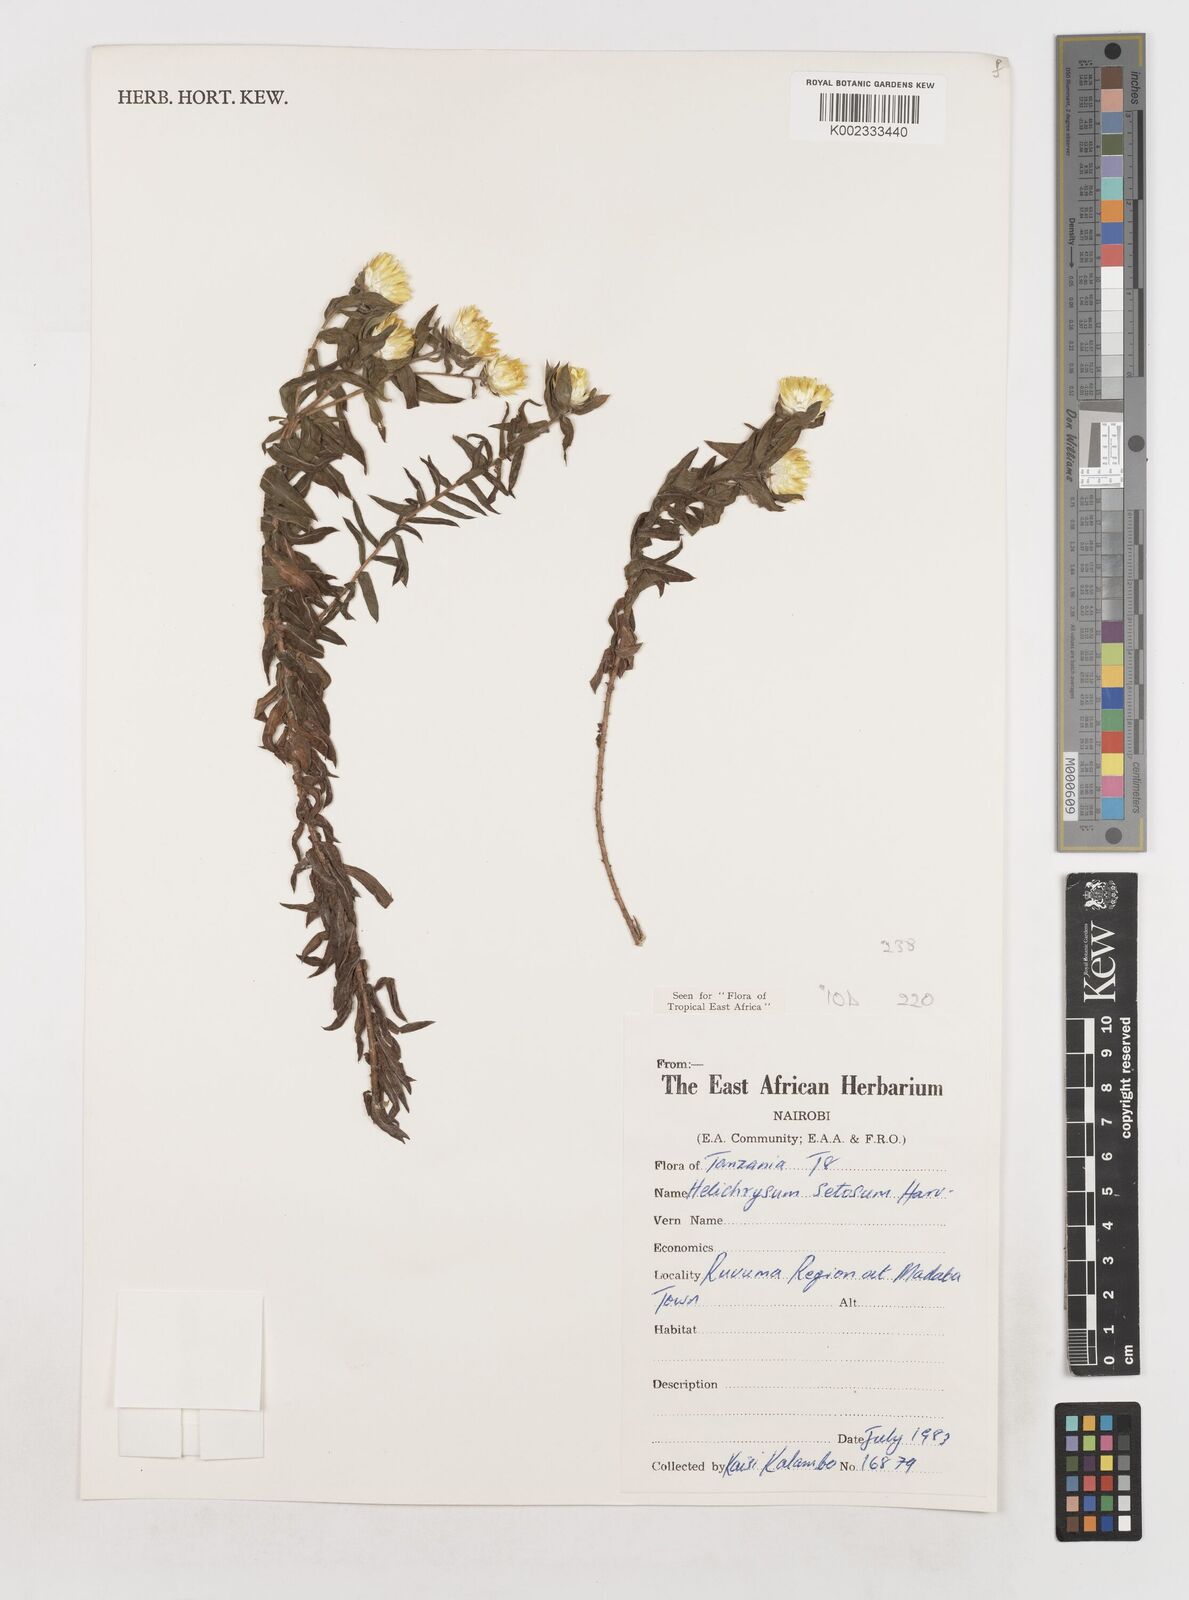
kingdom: Plantae
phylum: Tracheophyta
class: Magnoliopsida
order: Asterales
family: Asteraceae
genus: Helichrysum
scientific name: Helichrysum setosum
